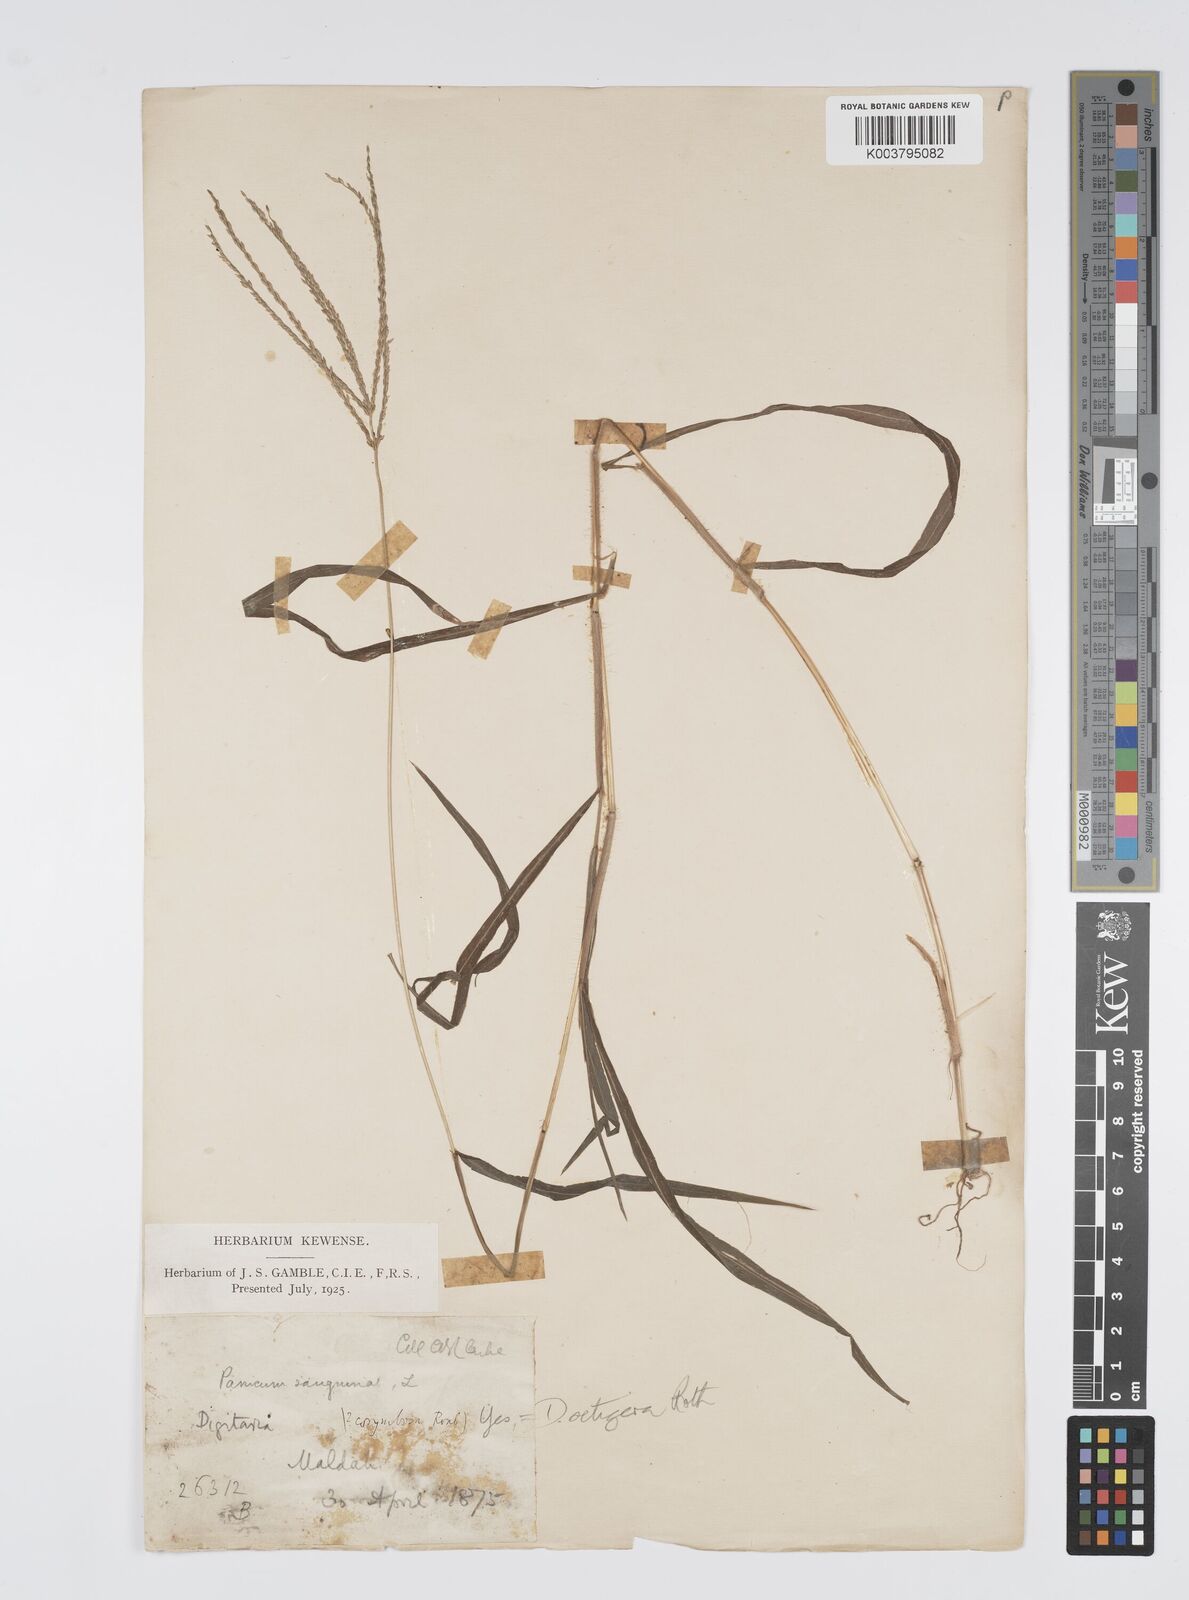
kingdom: Plantae
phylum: Tracheophyta
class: Liliopsida
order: Poales
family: Poaceae
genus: Digitaria
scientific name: Digitaria setigera
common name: East indian crabgrass
